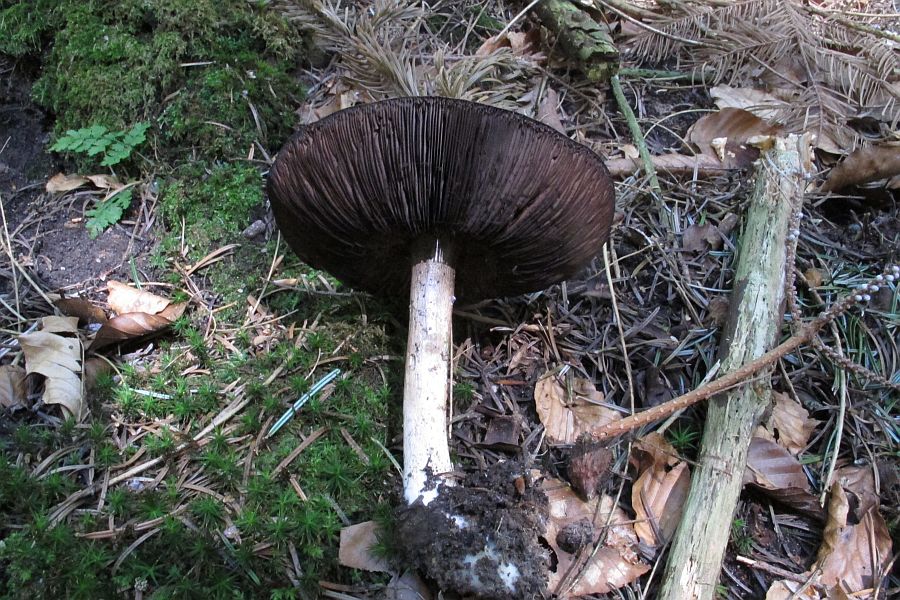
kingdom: Fungi
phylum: Basidiomycota
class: Agaricomycetes
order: Agaricales
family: Agaricaceae
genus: Agaricus
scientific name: Agaricus sylvicola
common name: gulhvid champignon
